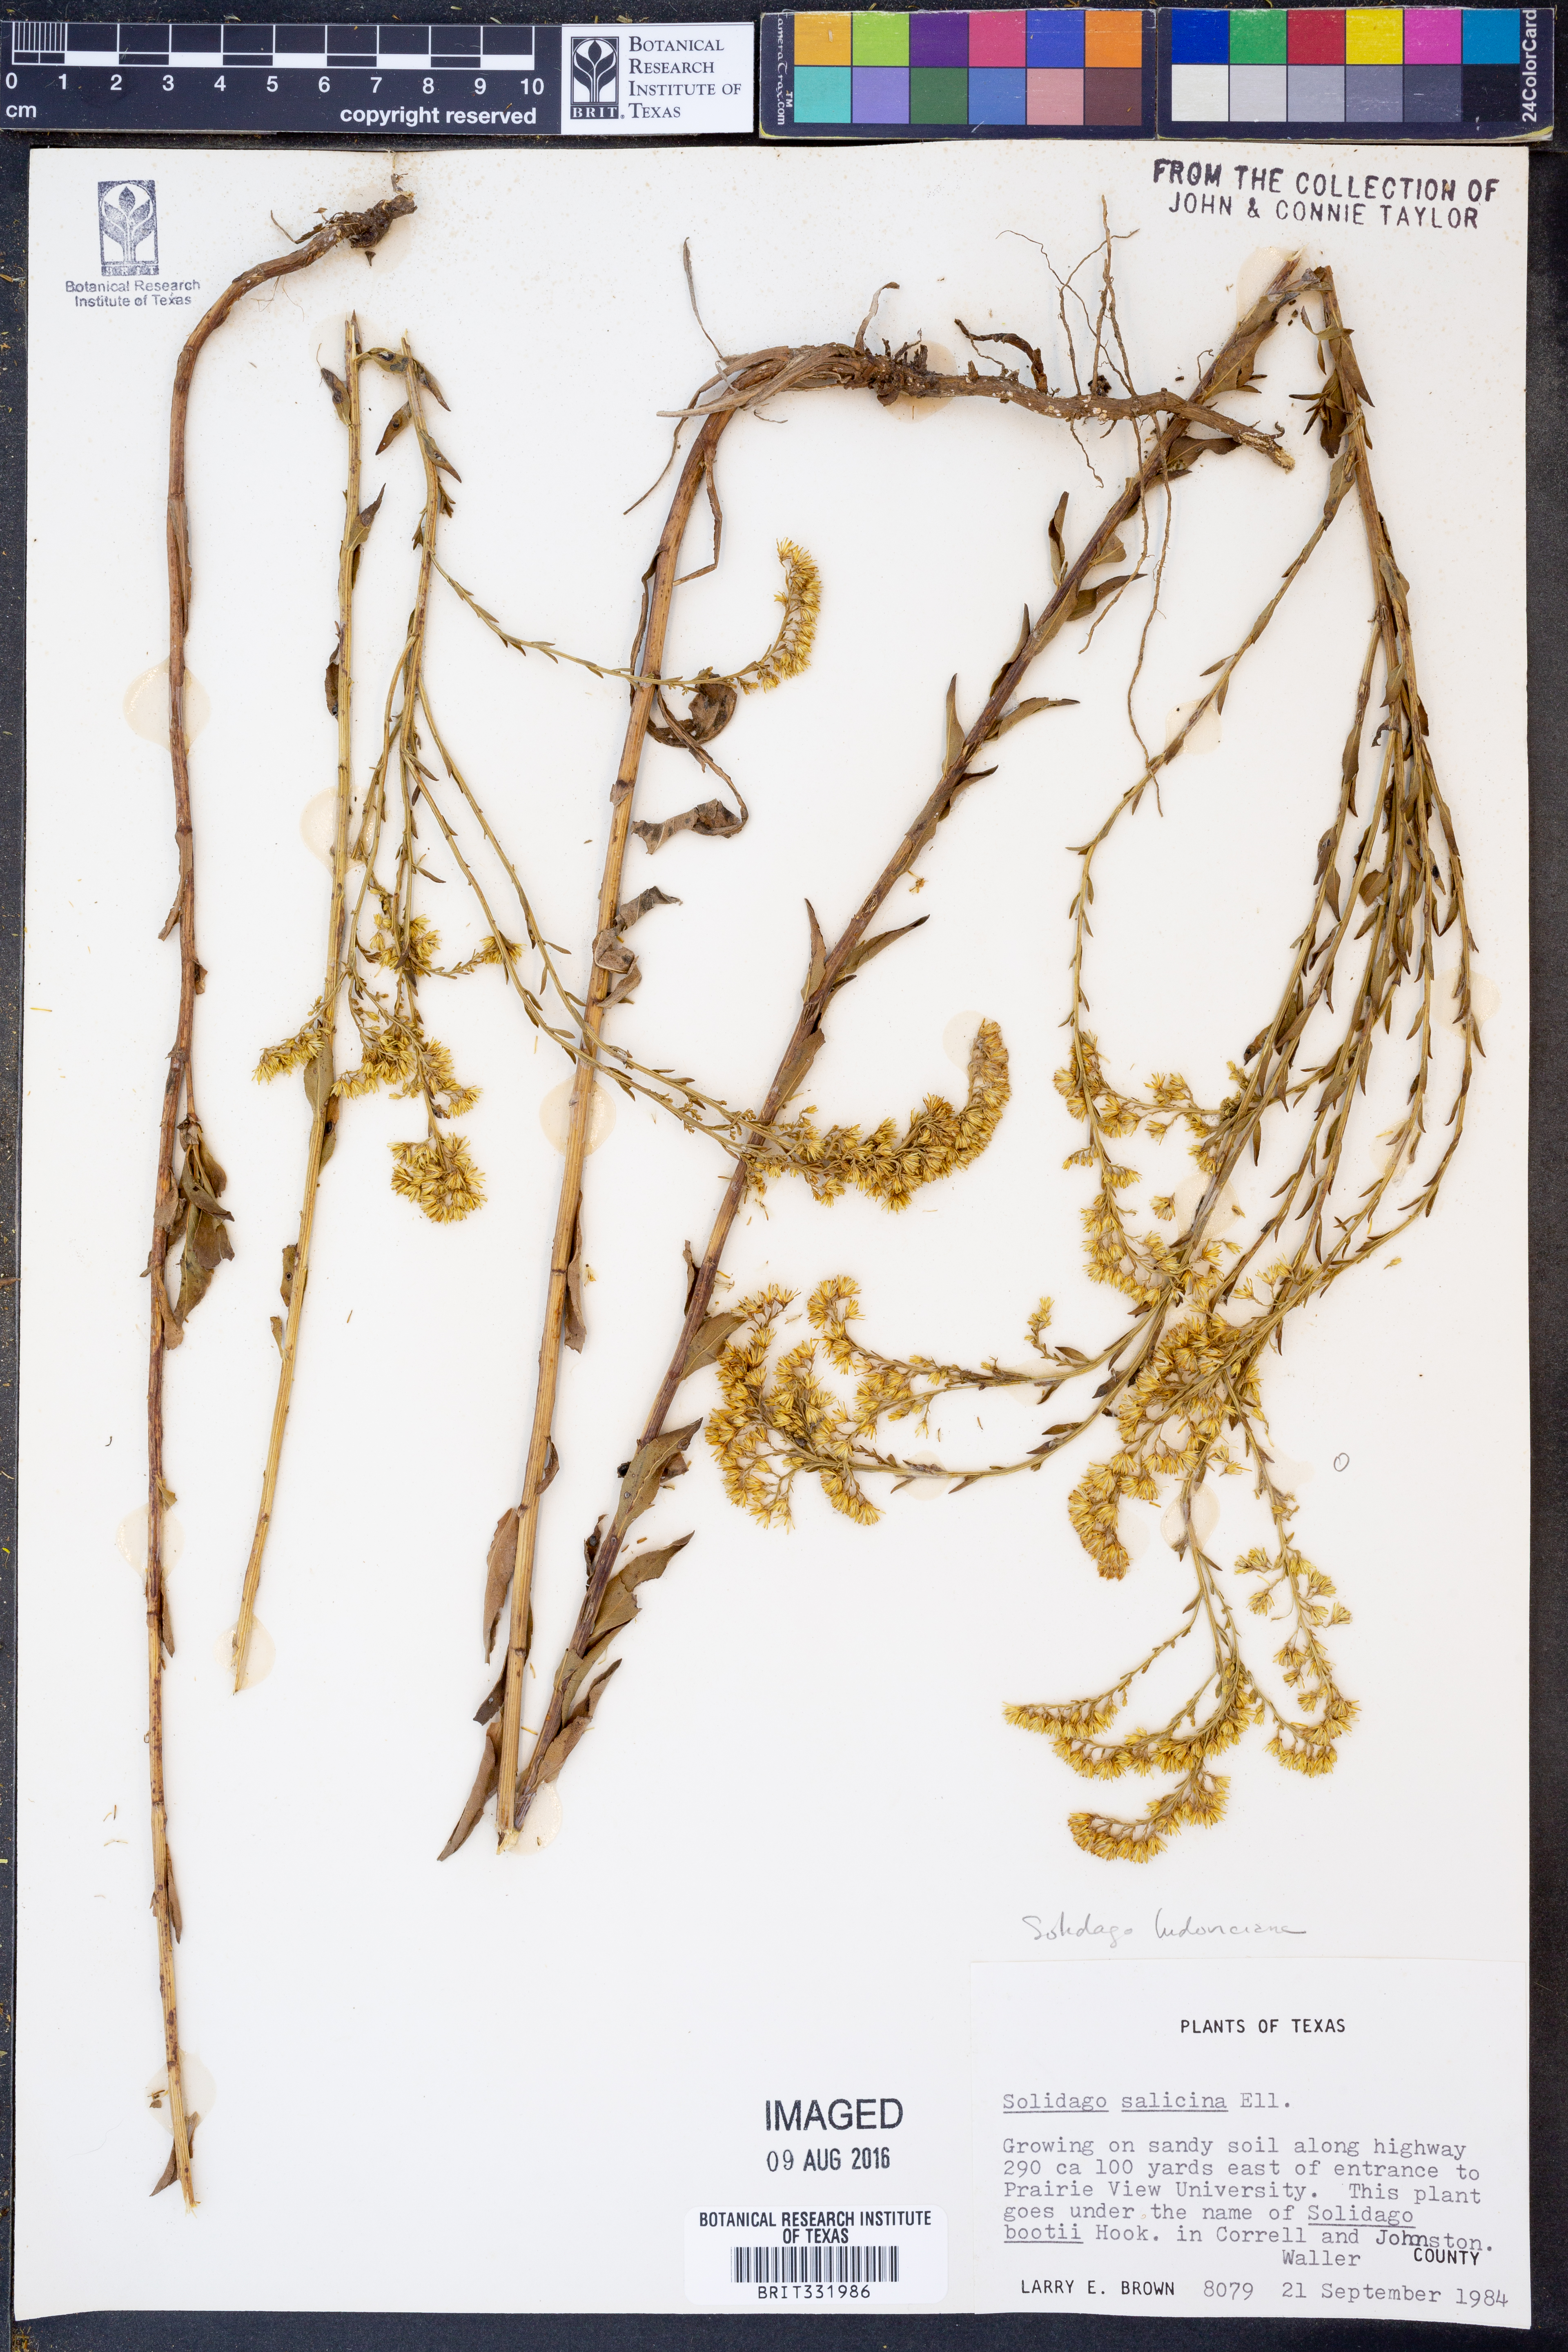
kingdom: Plantae
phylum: Tracheophyta
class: Magnoliopsida
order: Asterales
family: Asteraceae
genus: Solidago
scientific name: Solidago ludoviciana
